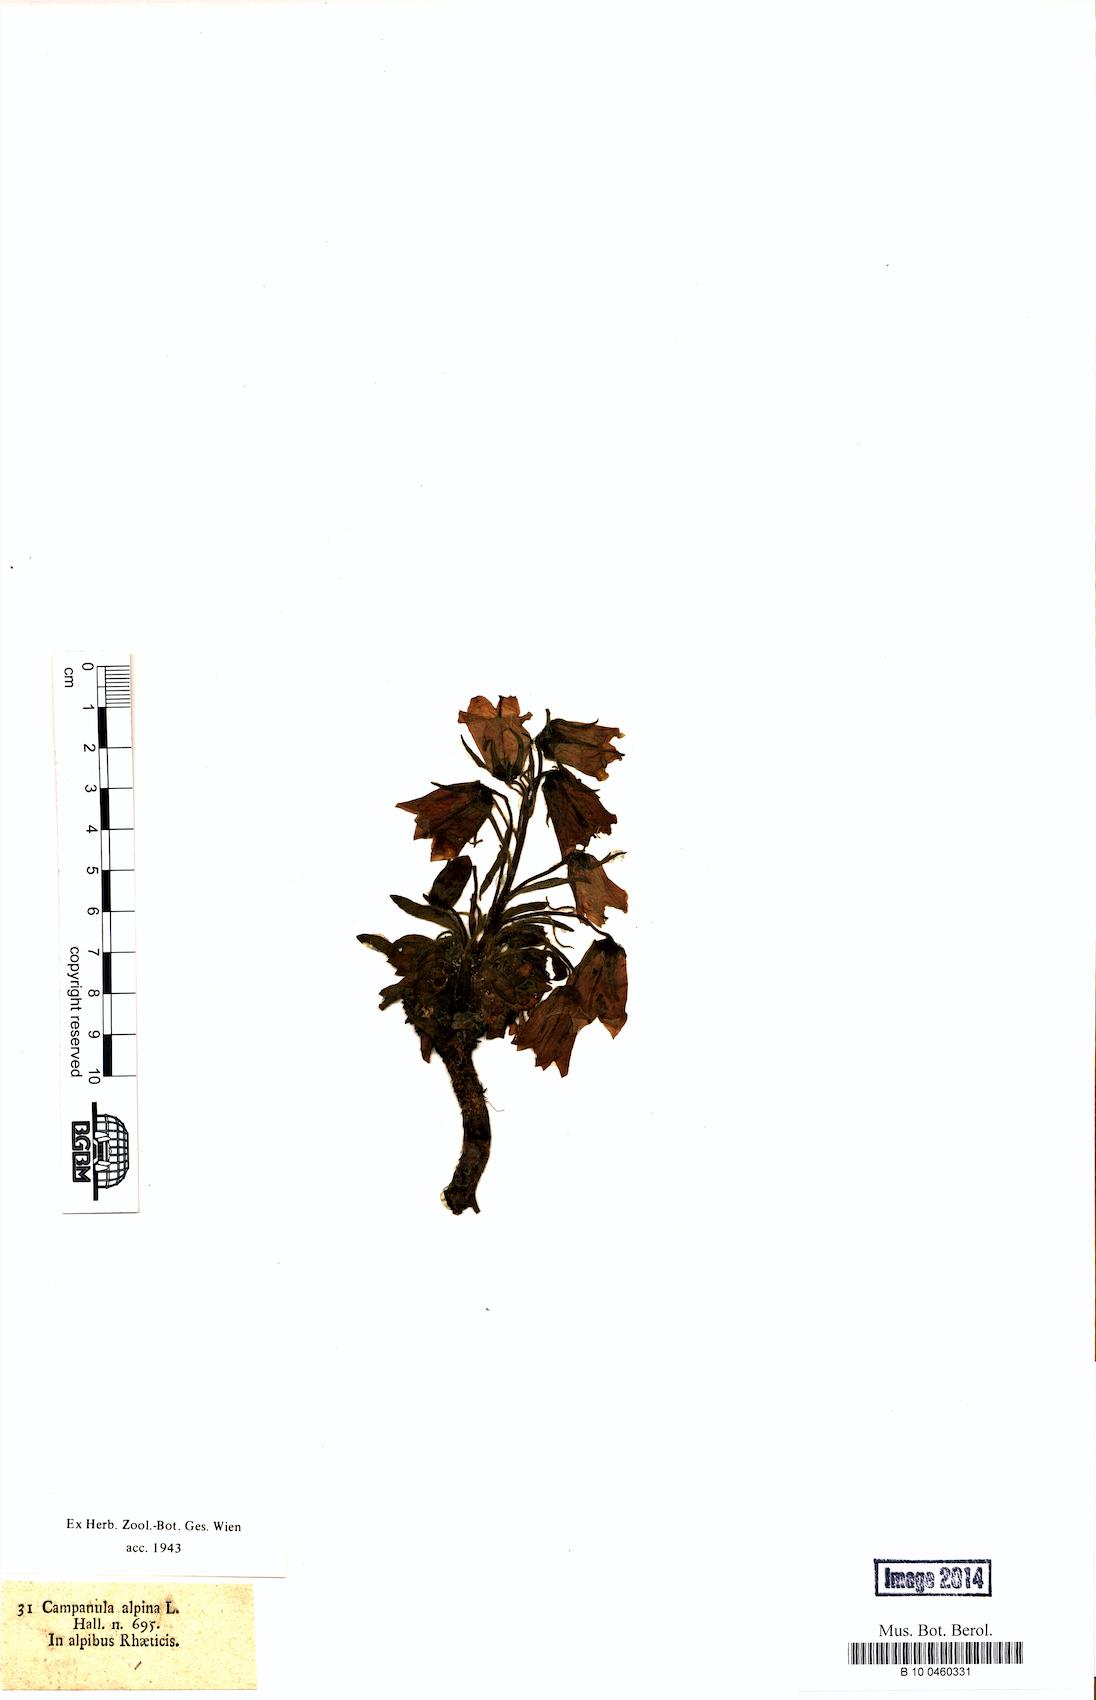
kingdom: Plantae
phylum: Tracheophyta
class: Magnoliopsida
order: Asterales
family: Campanulaceae
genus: Campanula
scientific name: Campanula alpina
